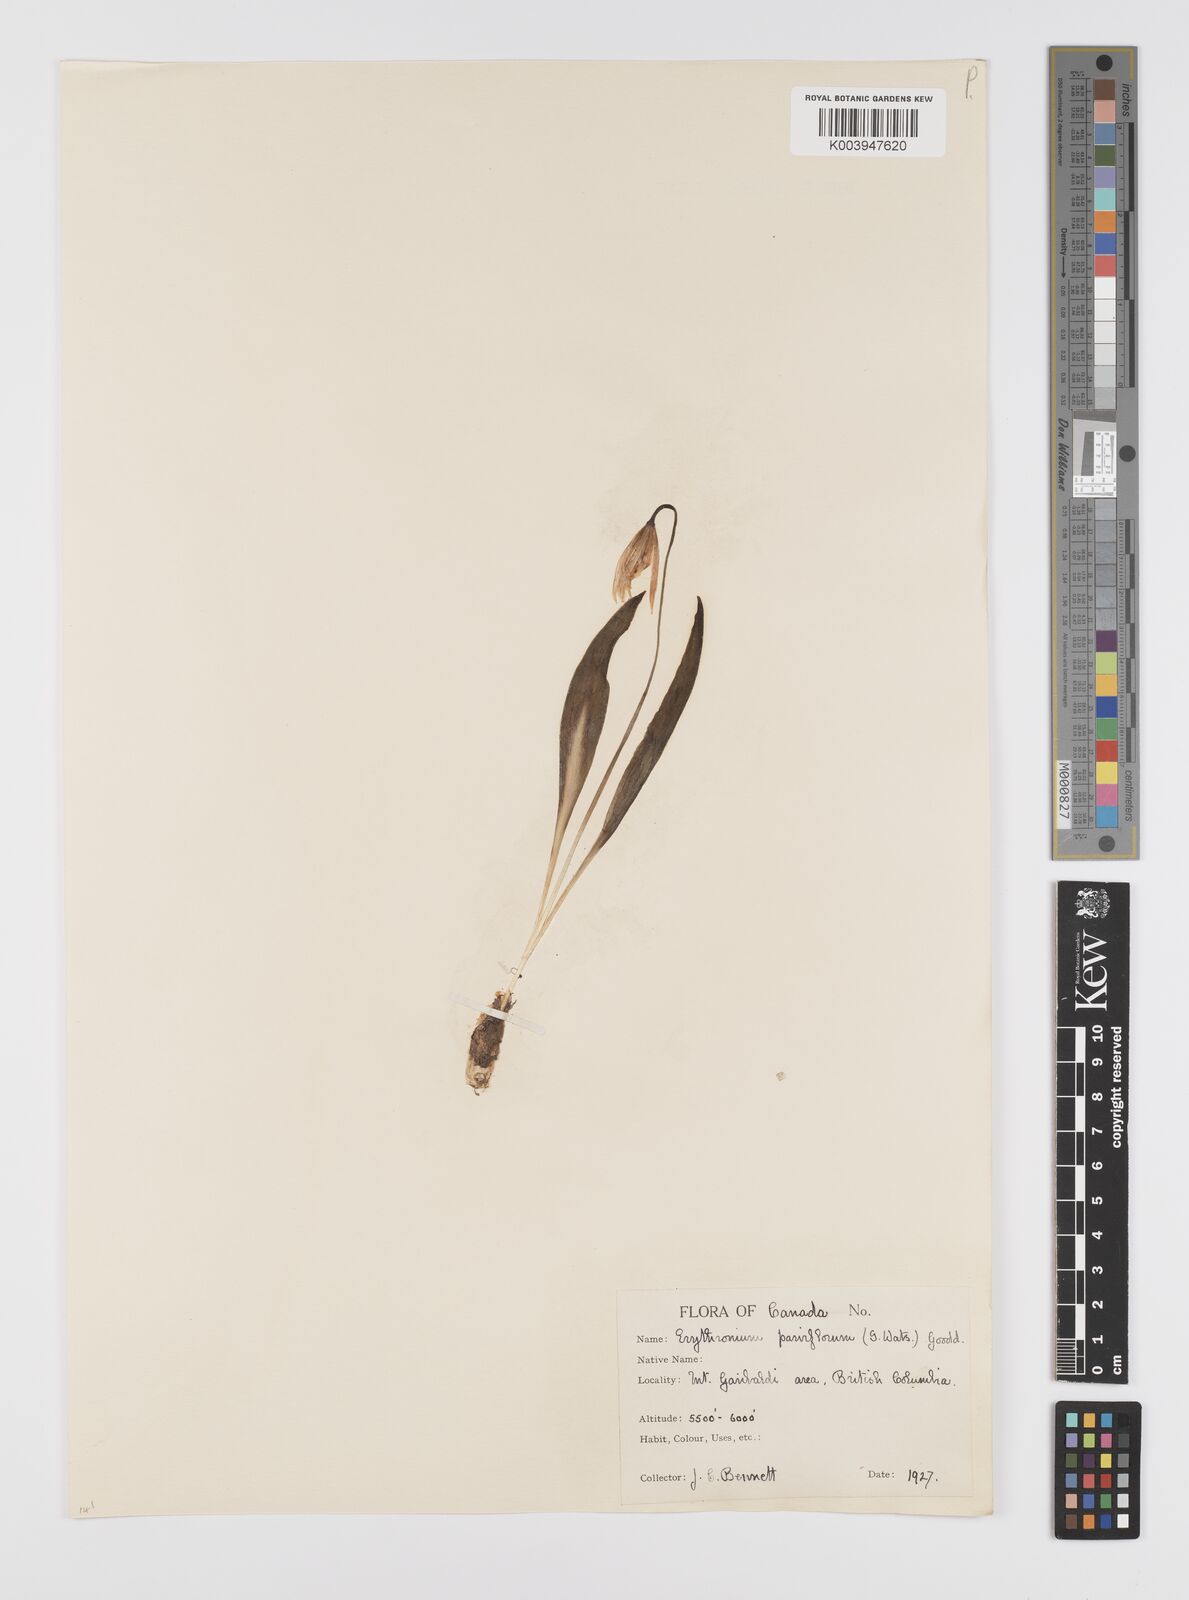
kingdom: Plantae
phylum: Tracheophyta
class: Liliopsida
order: Liliales
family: Liliaceae
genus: Erythronium
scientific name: Erythronium grandiflorum
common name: Avalanche-lily
